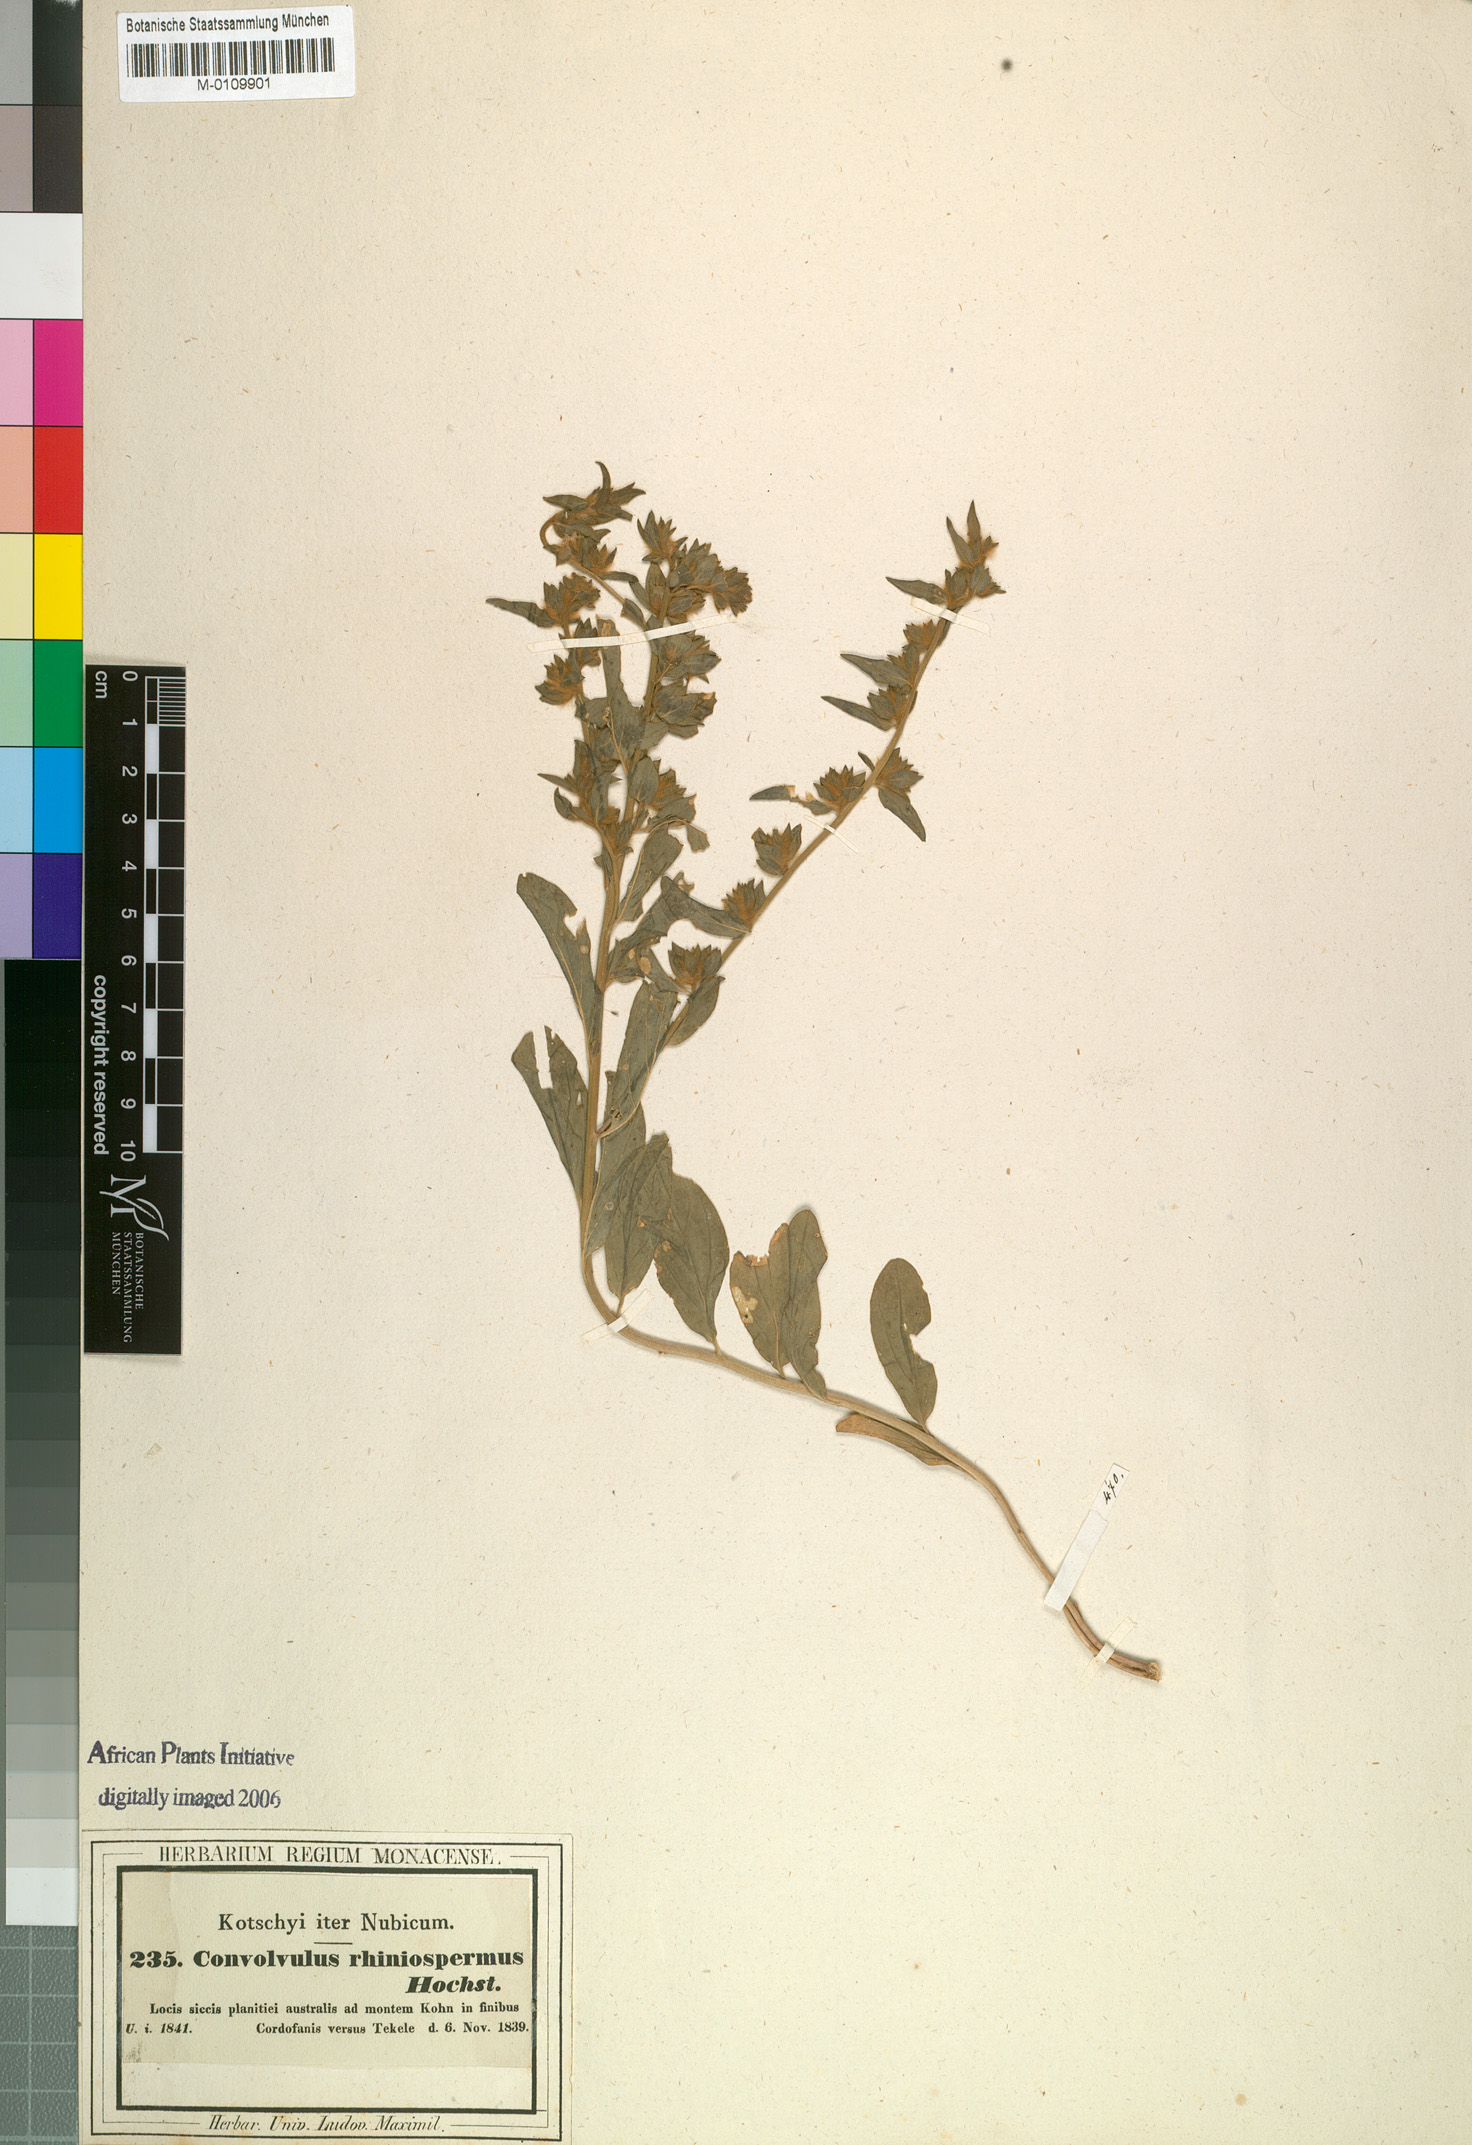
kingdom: Plantae
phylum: Tracheophyta
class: Magnoliopsida
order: Solanales
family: Convolvulaceae
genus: Convolvulus
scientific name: Convolvulus rhyniospermus
